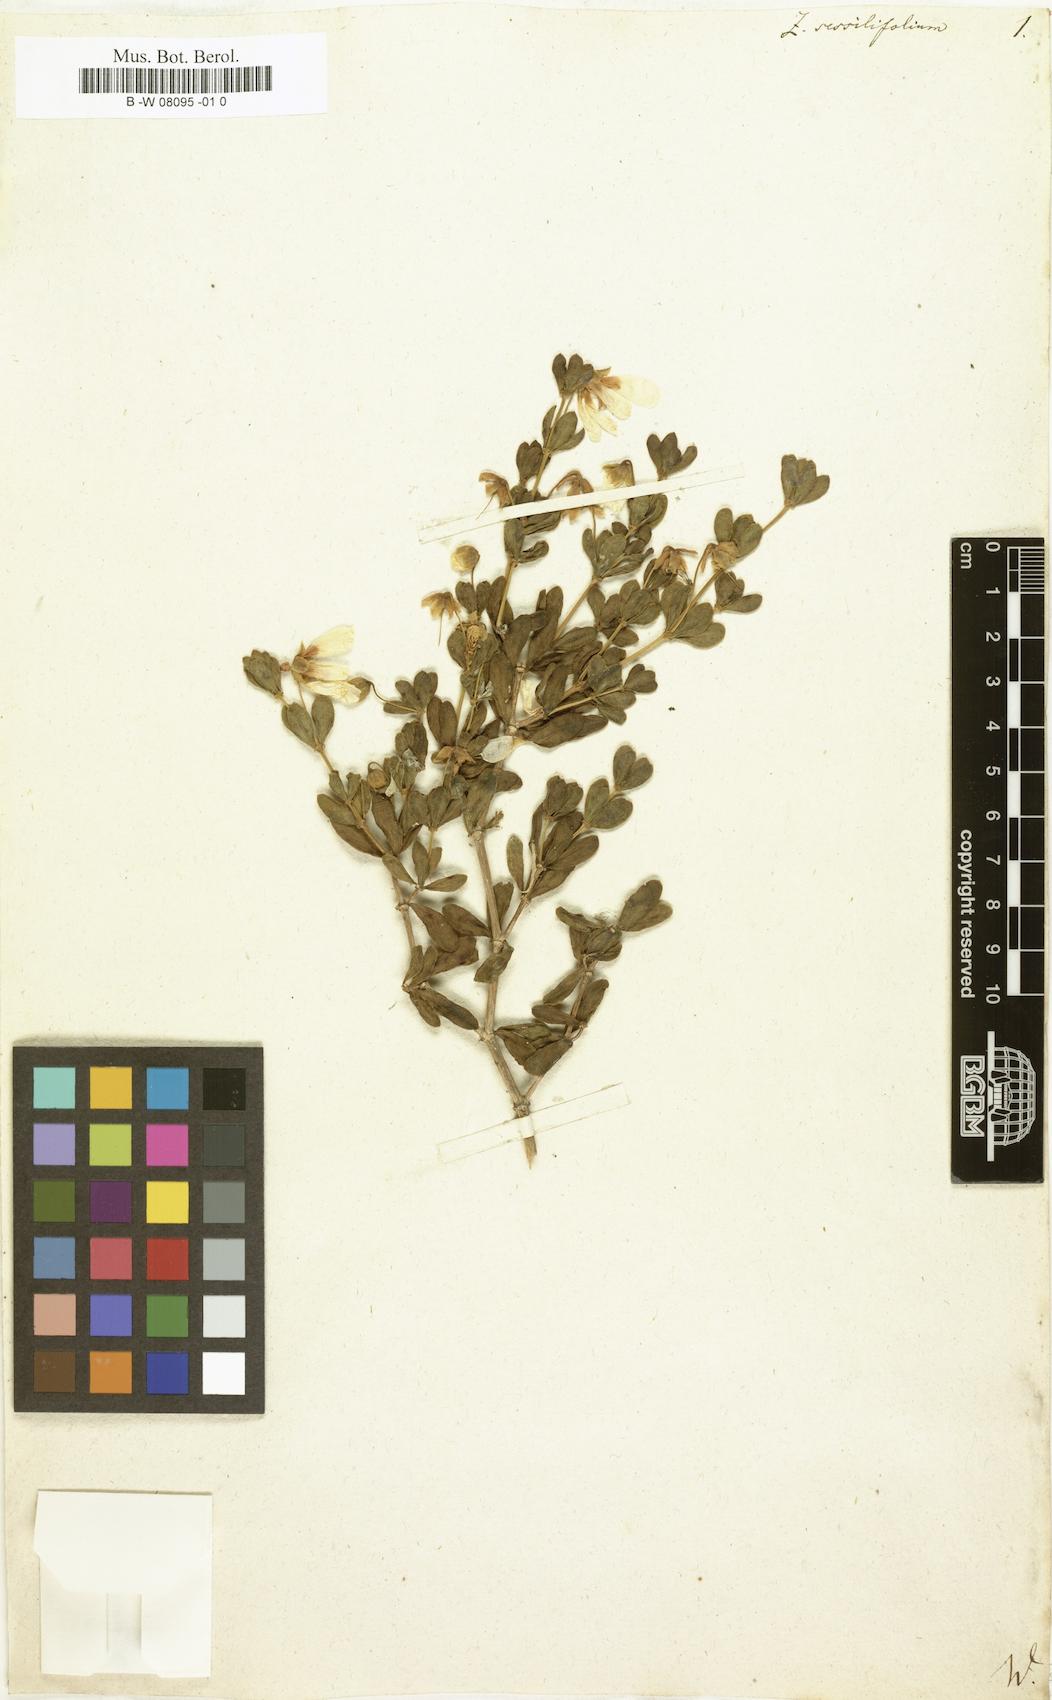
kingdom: Plantae
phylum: Tracheophyta
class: Magnoliopsida
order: Zygophyllales
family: Zygophyllaceae
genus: Roepera
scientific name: Roepera sessilifolia
